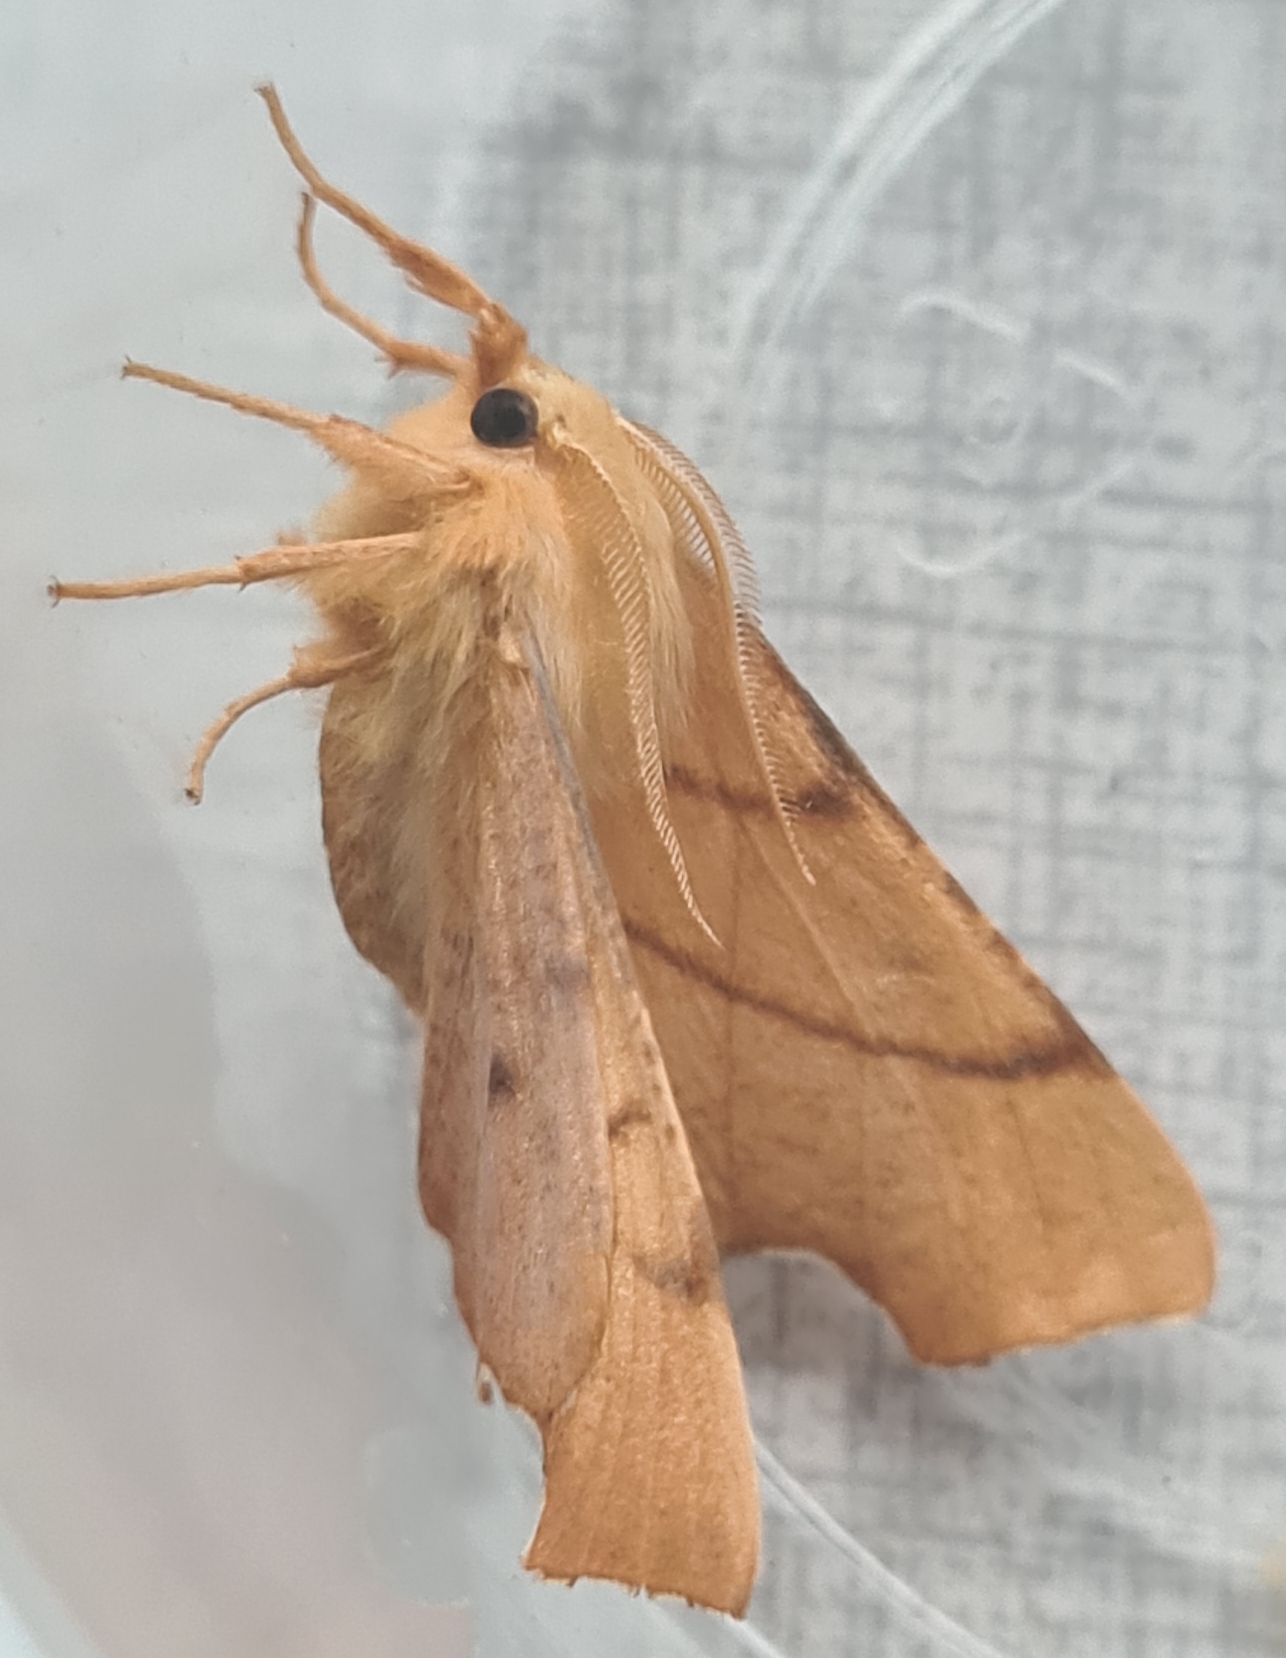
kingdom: Animalia
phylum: Arthropoda
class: Insecta
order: Lepidoptera
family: Geometridae
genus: Ennomos
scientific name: Ennomos erosaria
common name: Ege-tandmåler
